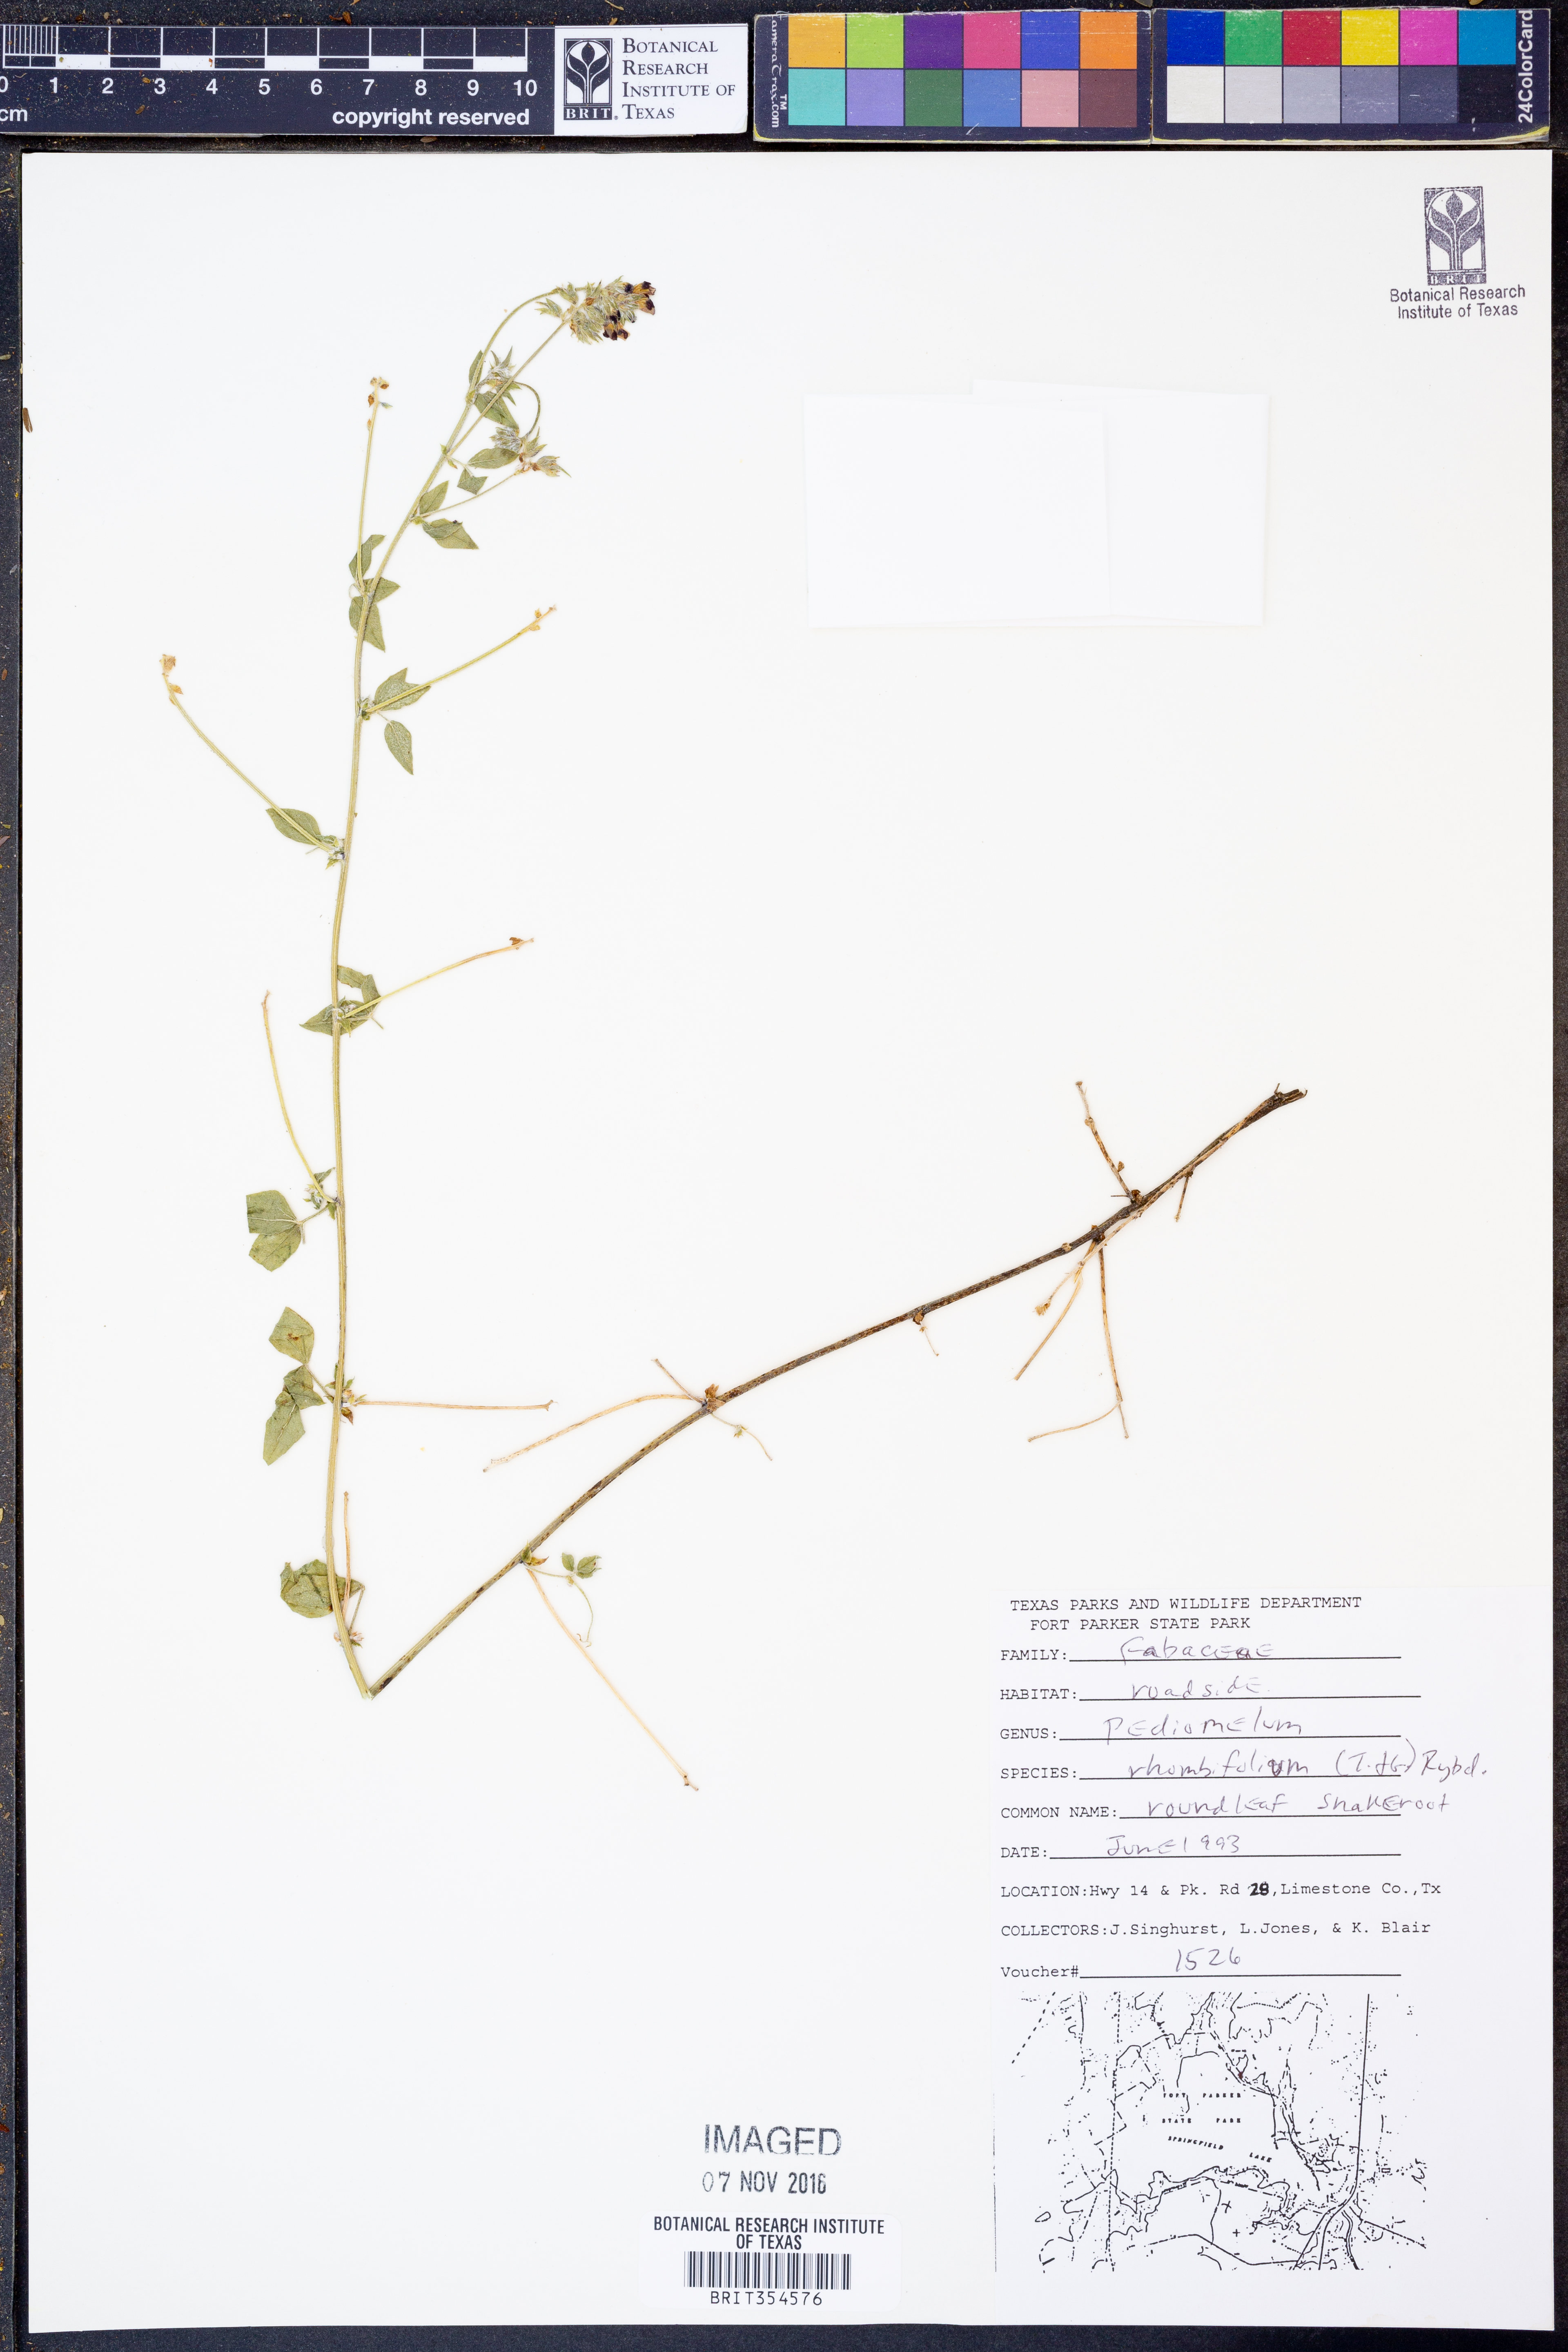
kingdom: Plantae
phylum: Tracheophyta
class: Magnoliopsida
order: Fabales
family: Fabaceae
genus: Pediomelum
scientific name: Pediomelum rhombifolium
